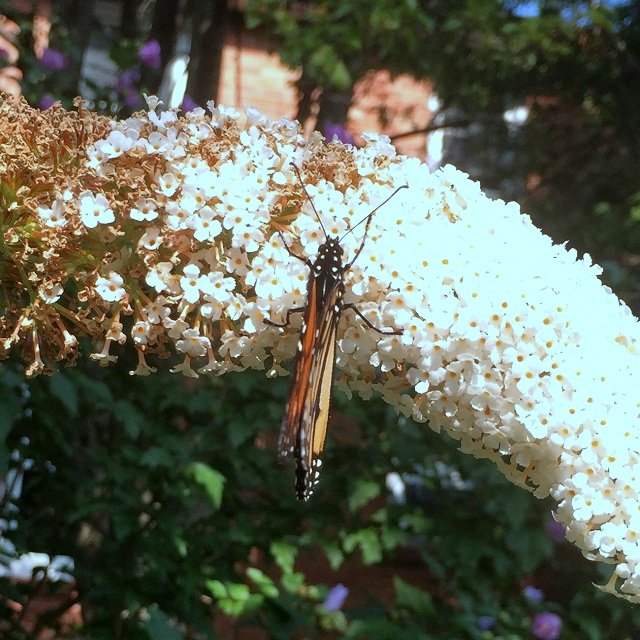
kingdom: Animalia
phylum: Arthropoda
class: Insecta
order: Lepidoptera
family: Nymphalidae
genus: Danaus
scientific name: Danaus plexippus
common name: Monarch
